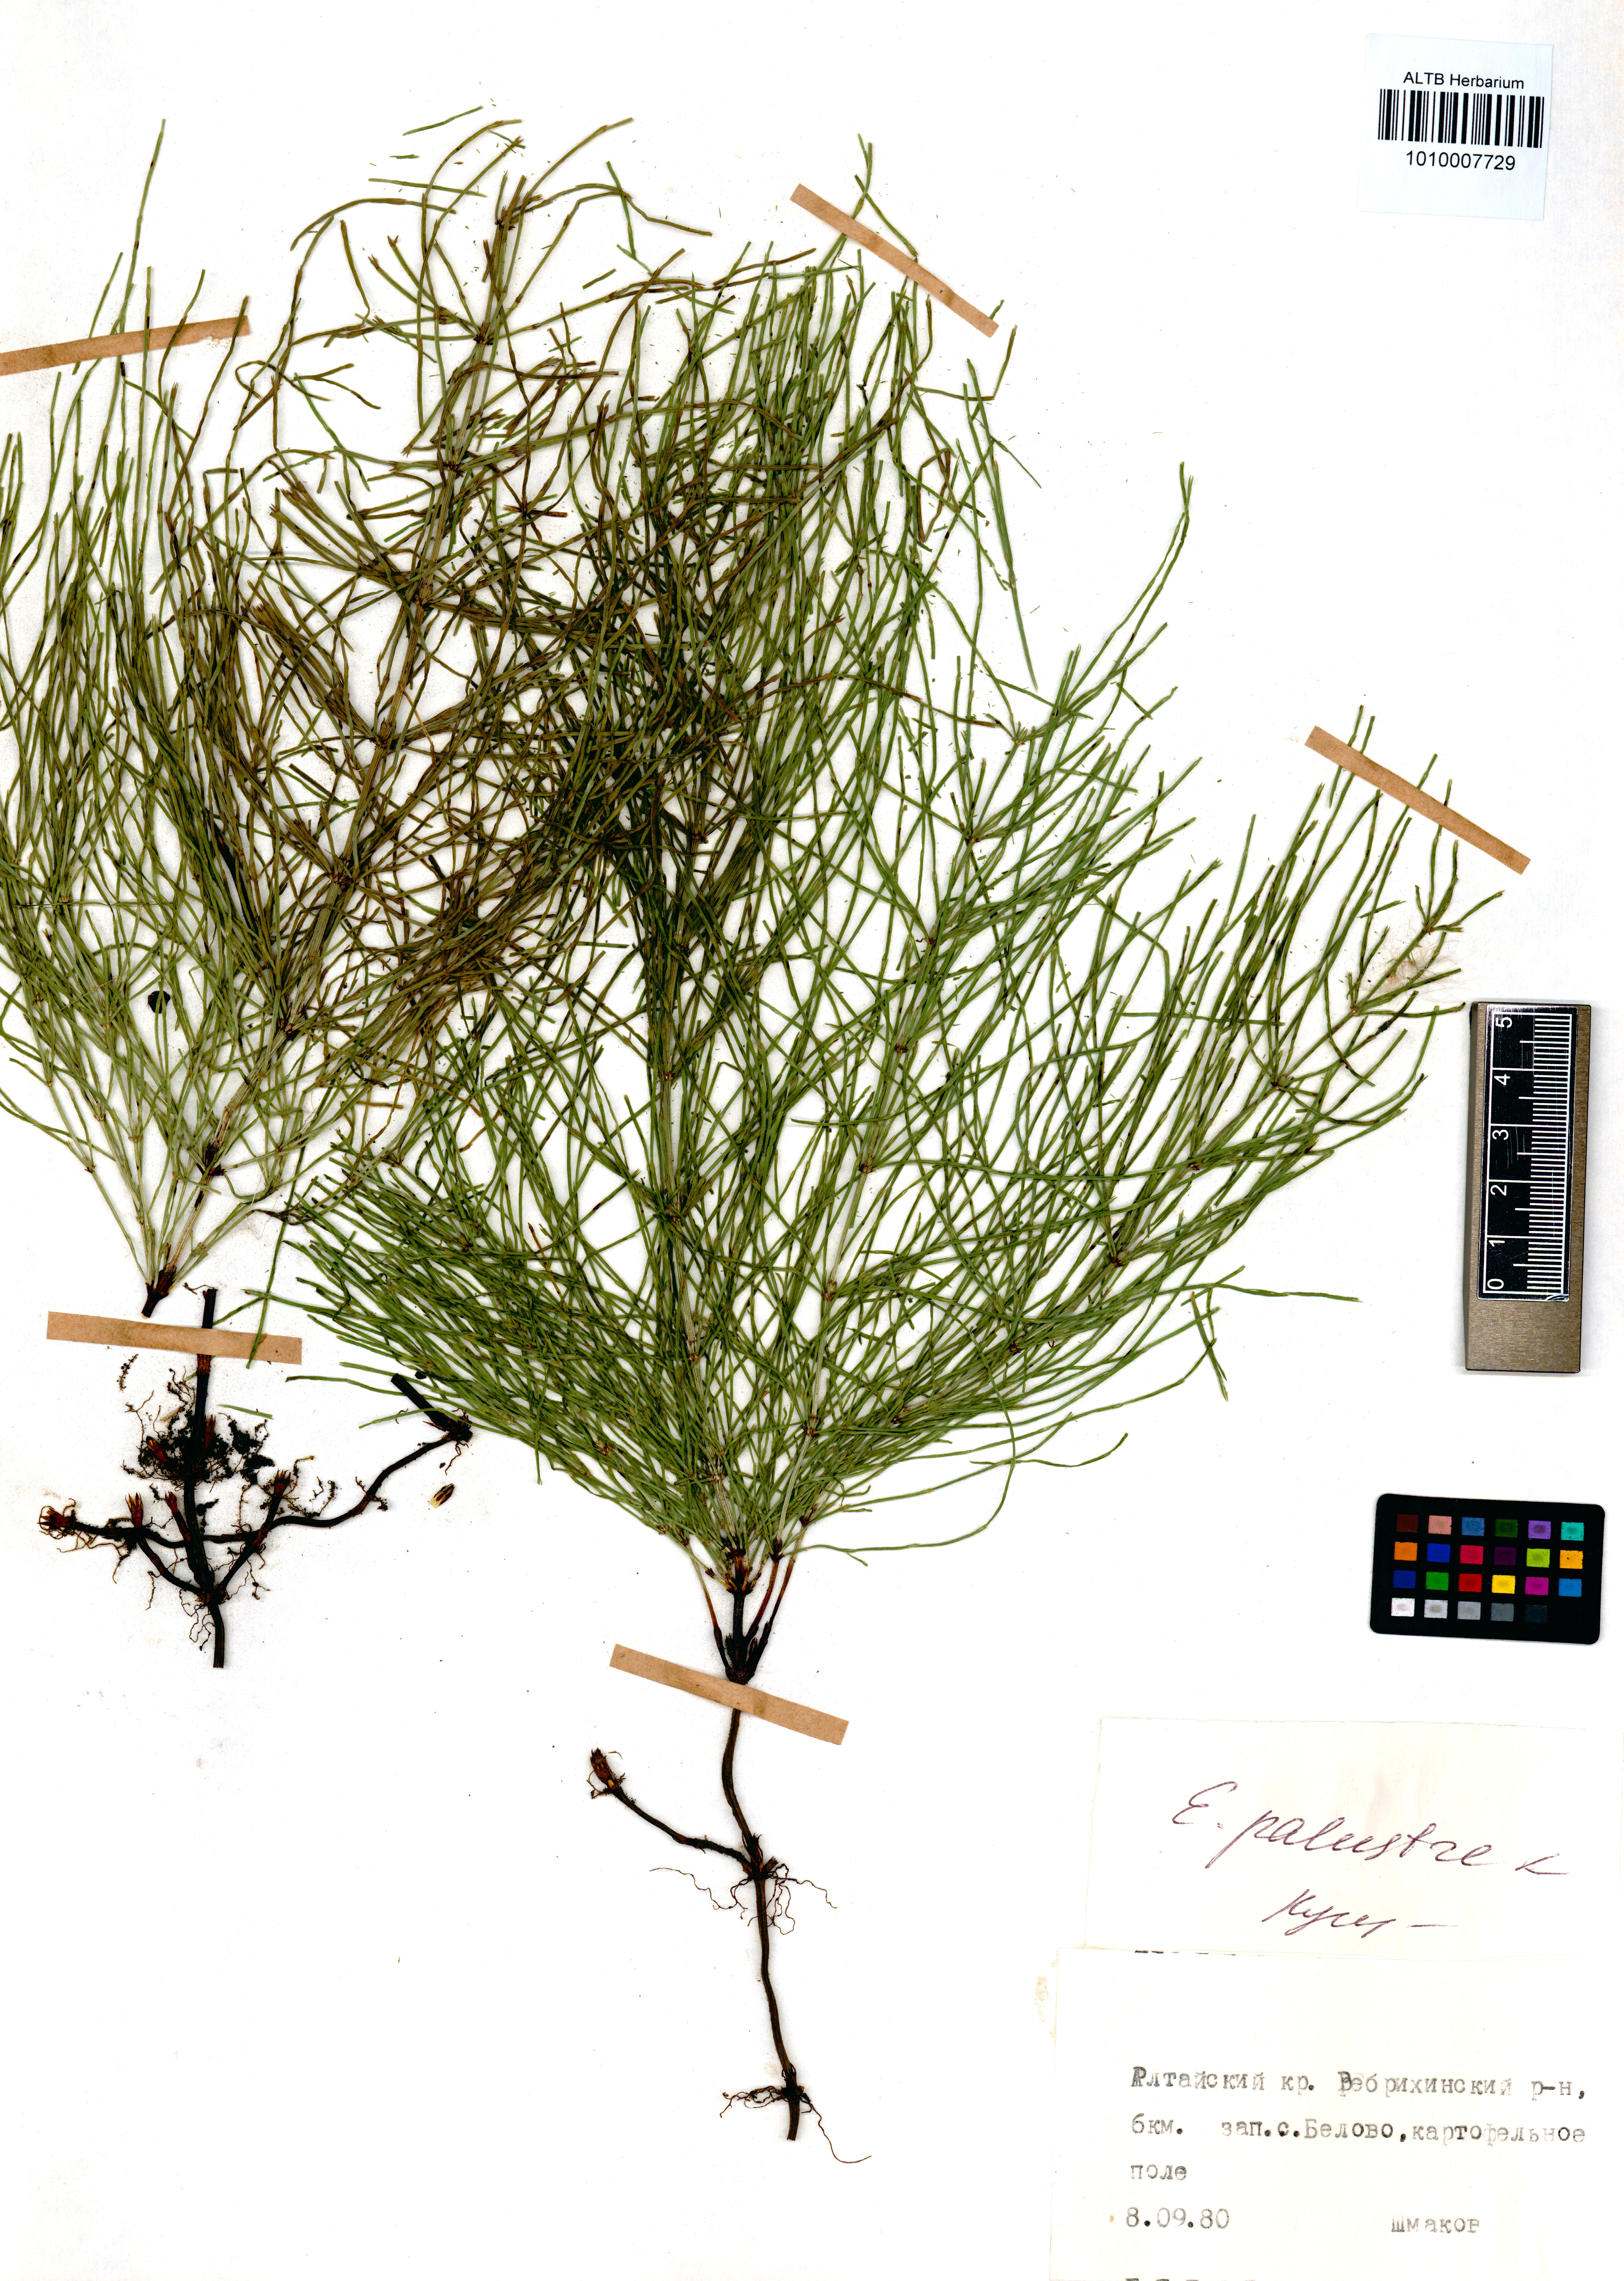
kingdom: Plantae
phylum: Tracheophyta
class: Polypodiopsida
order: Equisetales
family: Equisetaceae
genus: Equisetum
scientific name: Equisetum palustre
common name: Marsh horsetail
